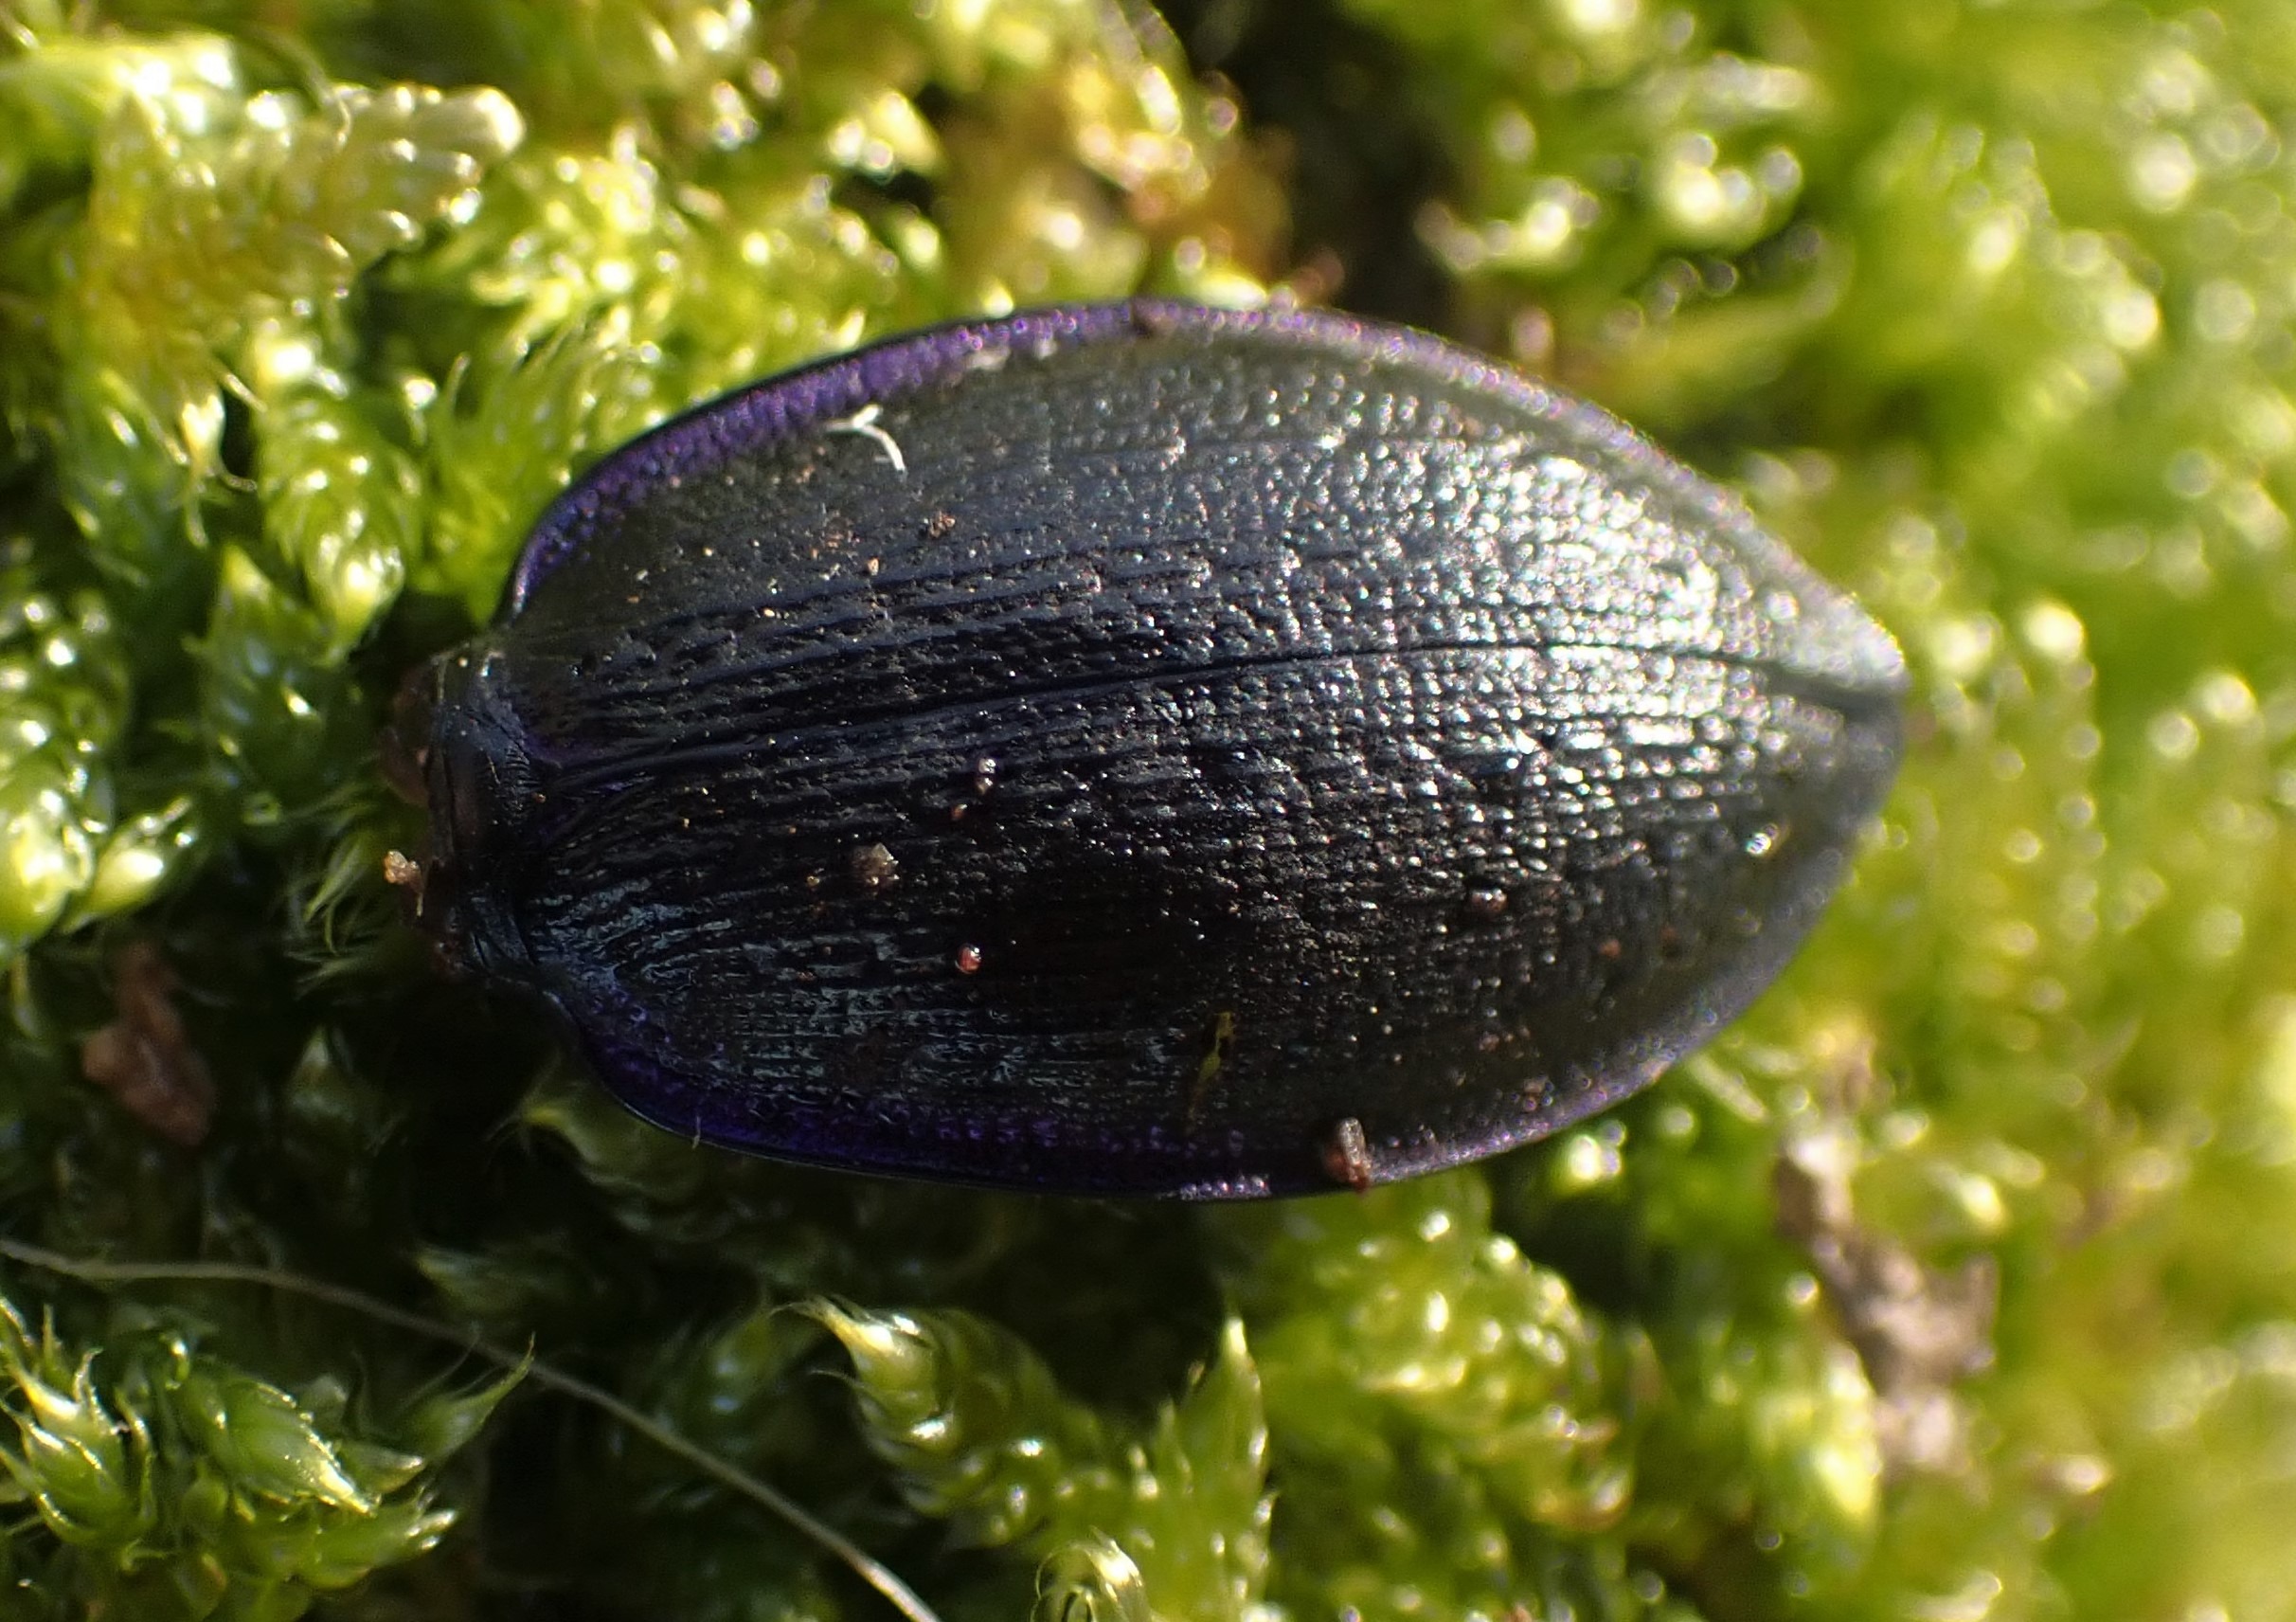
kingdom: Animalia
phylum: Arthropoda
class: Insecta
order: Coleoptera
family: Carabidae
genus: Carabus
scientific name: Carabus problematicus
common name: Jysk løber
